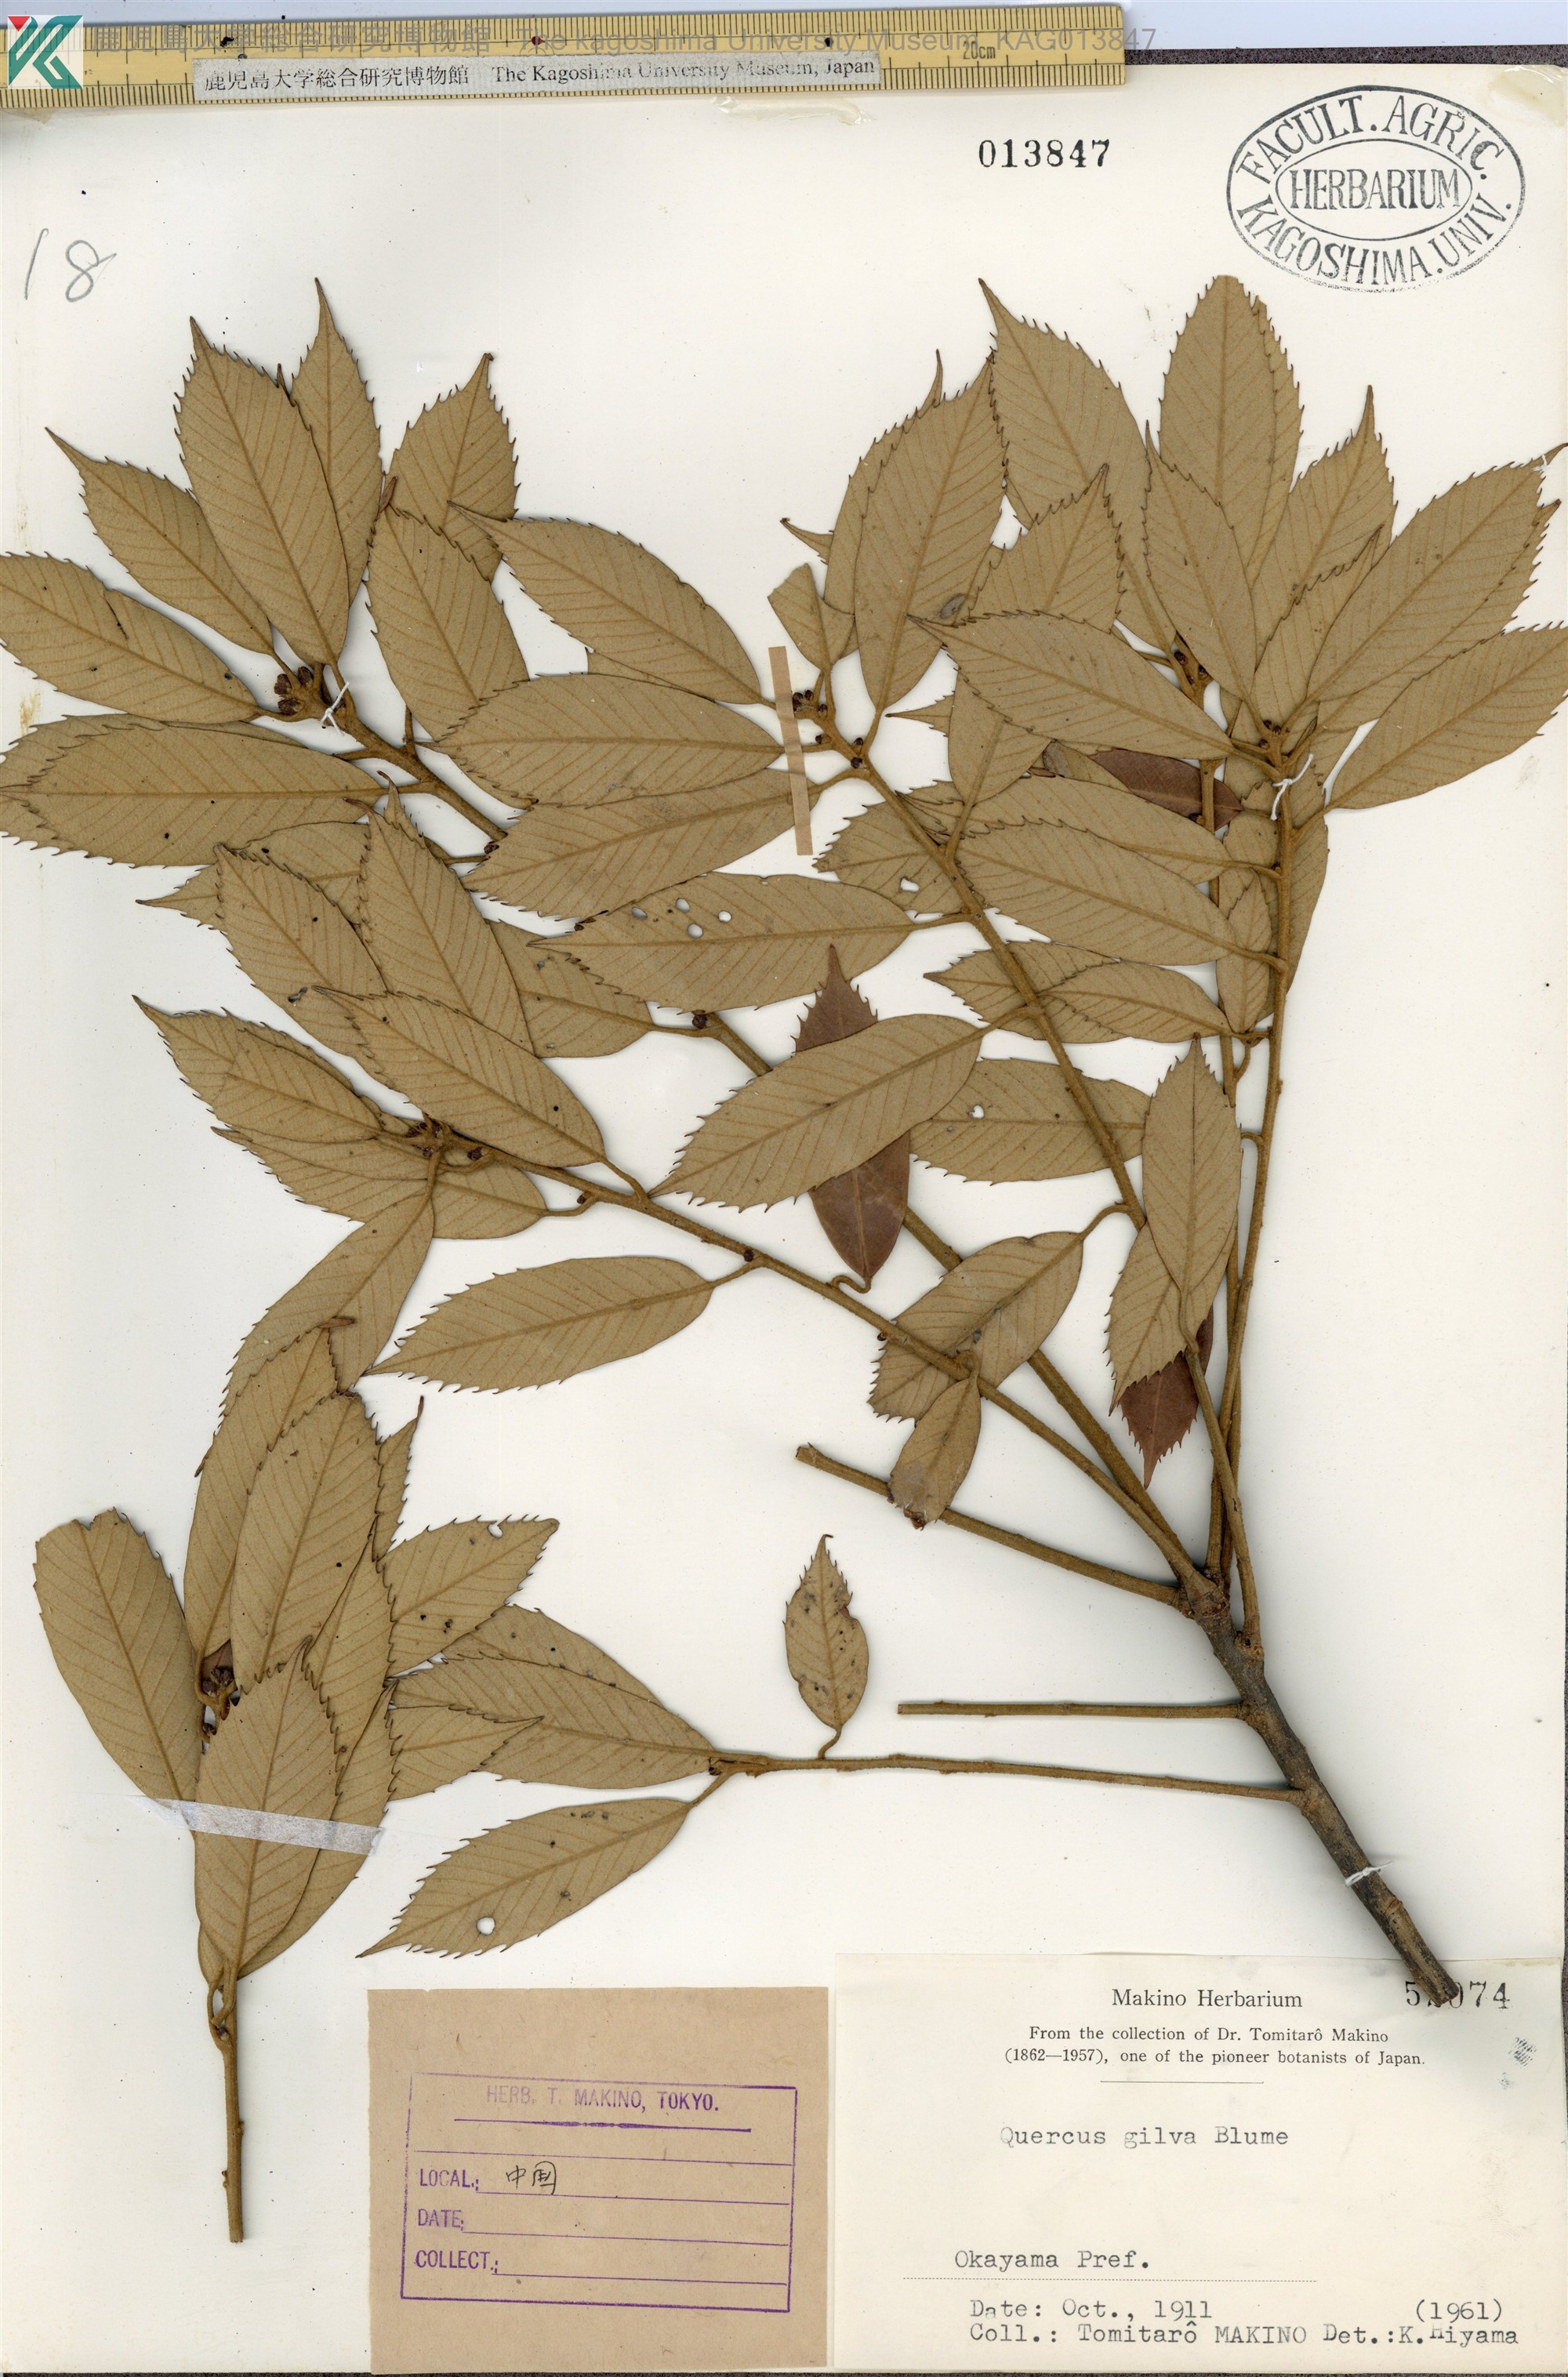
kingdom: Plantae
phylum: Tracheophyta
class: Magnoliopsida
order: Fagales
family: Fagaceae
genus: Quercus
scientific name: Quercus gilva
